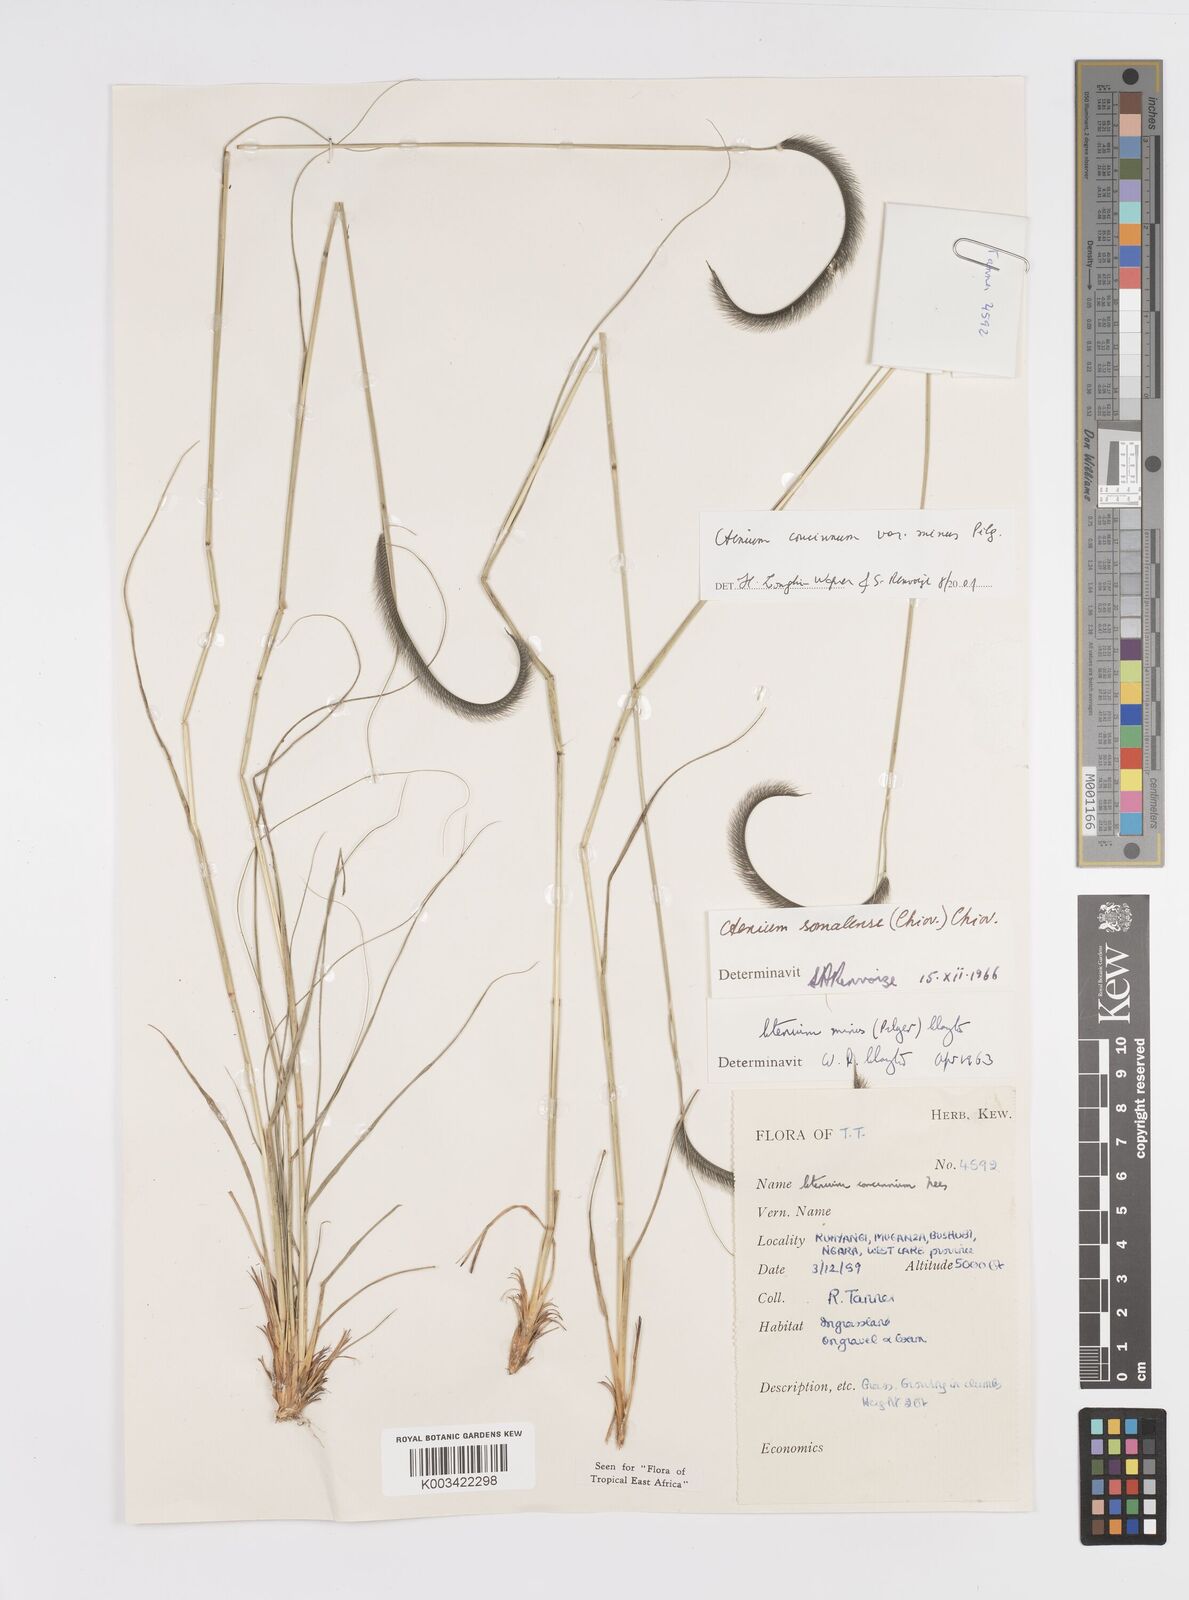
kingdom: Plantae
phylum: Tracheophyta
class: Liliopsida
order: Poales
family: Poaceae
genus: Ctenium
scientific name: Ctenium concinnum
